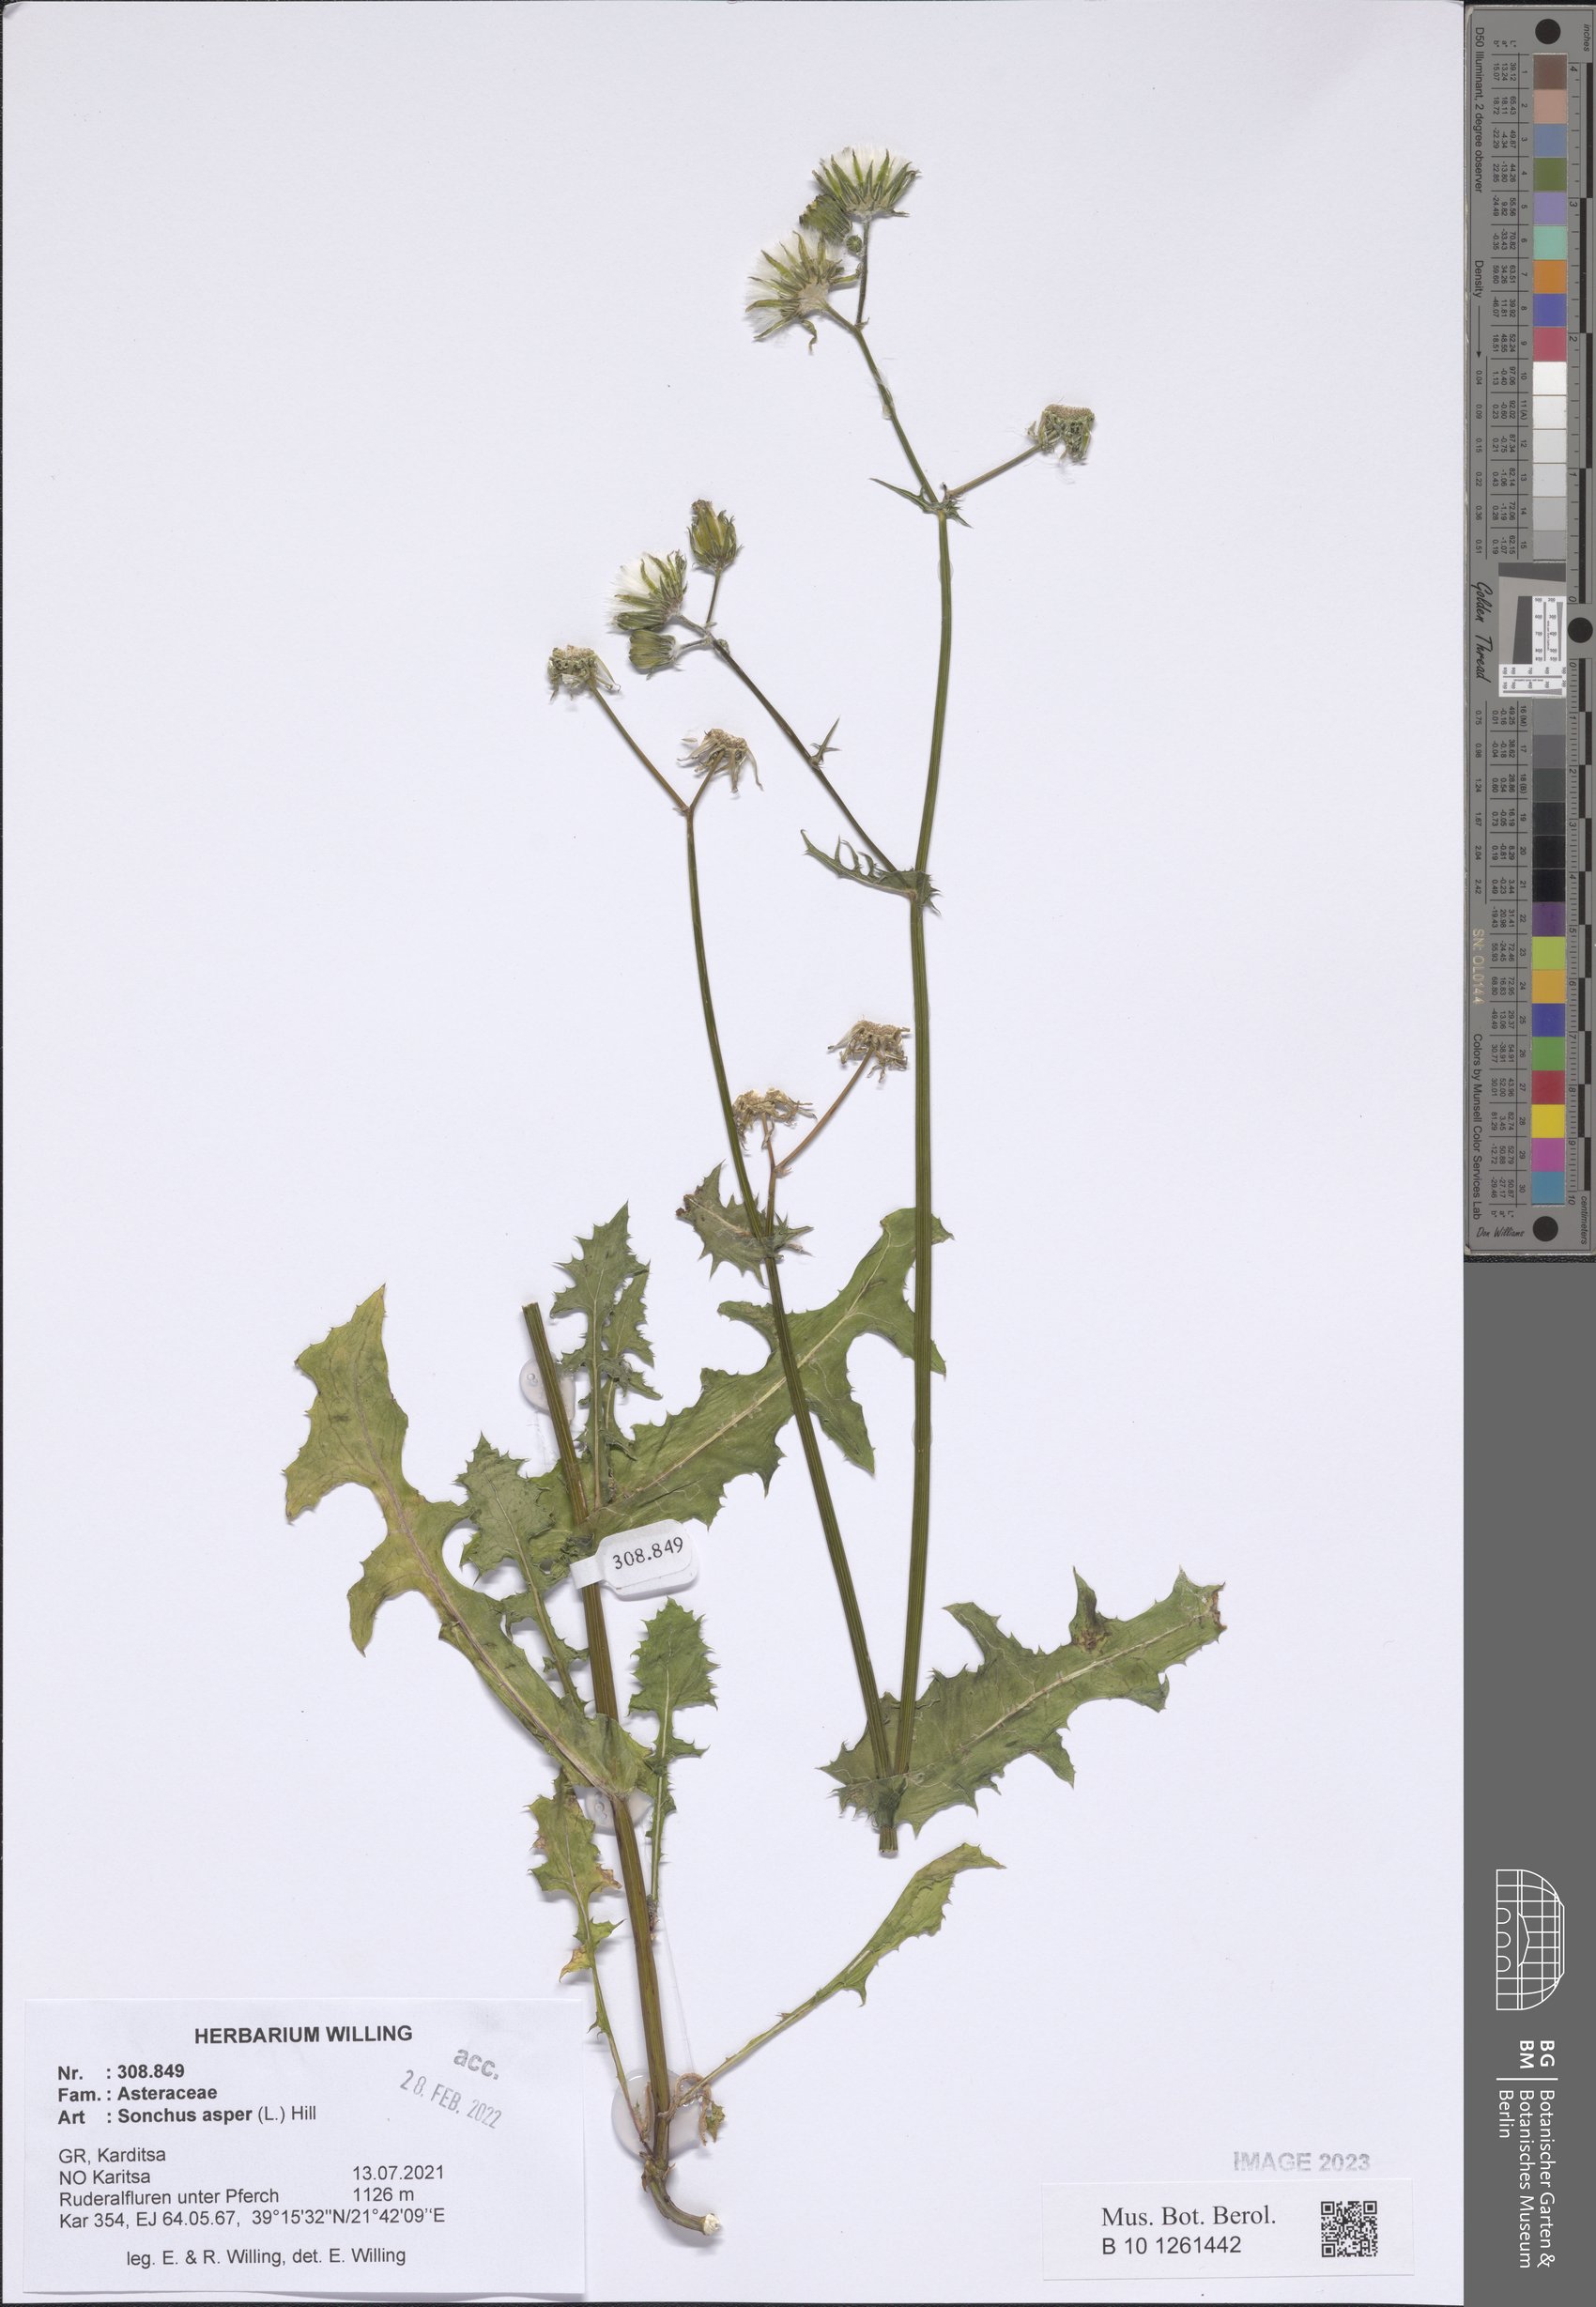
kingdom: Plantae
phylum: Tracheophyta
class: Magnoliopsida
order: Asterales
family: Asteraceae
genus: Sonchus
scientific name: Sonchus asper
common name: Prickly sow-thistle
